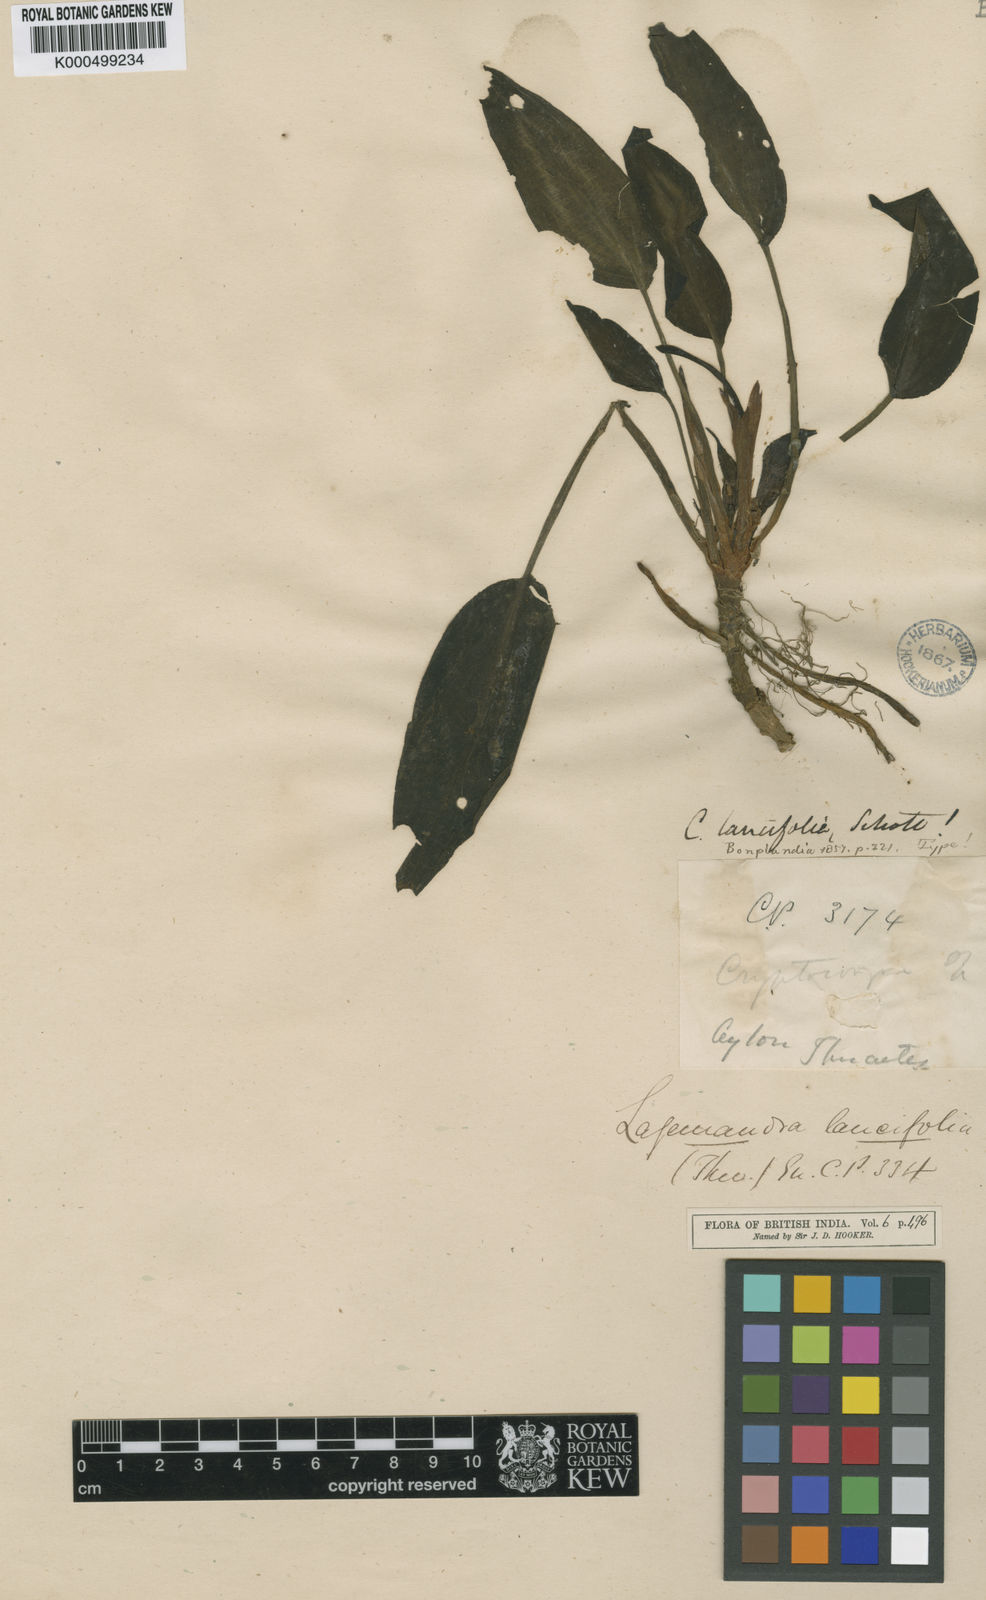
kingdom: Plantae
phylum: Tracheophyta
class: Liliopsida
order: Alismatales
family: Araceae
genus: Lagenandra
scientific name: Lagenandra lancifolia
